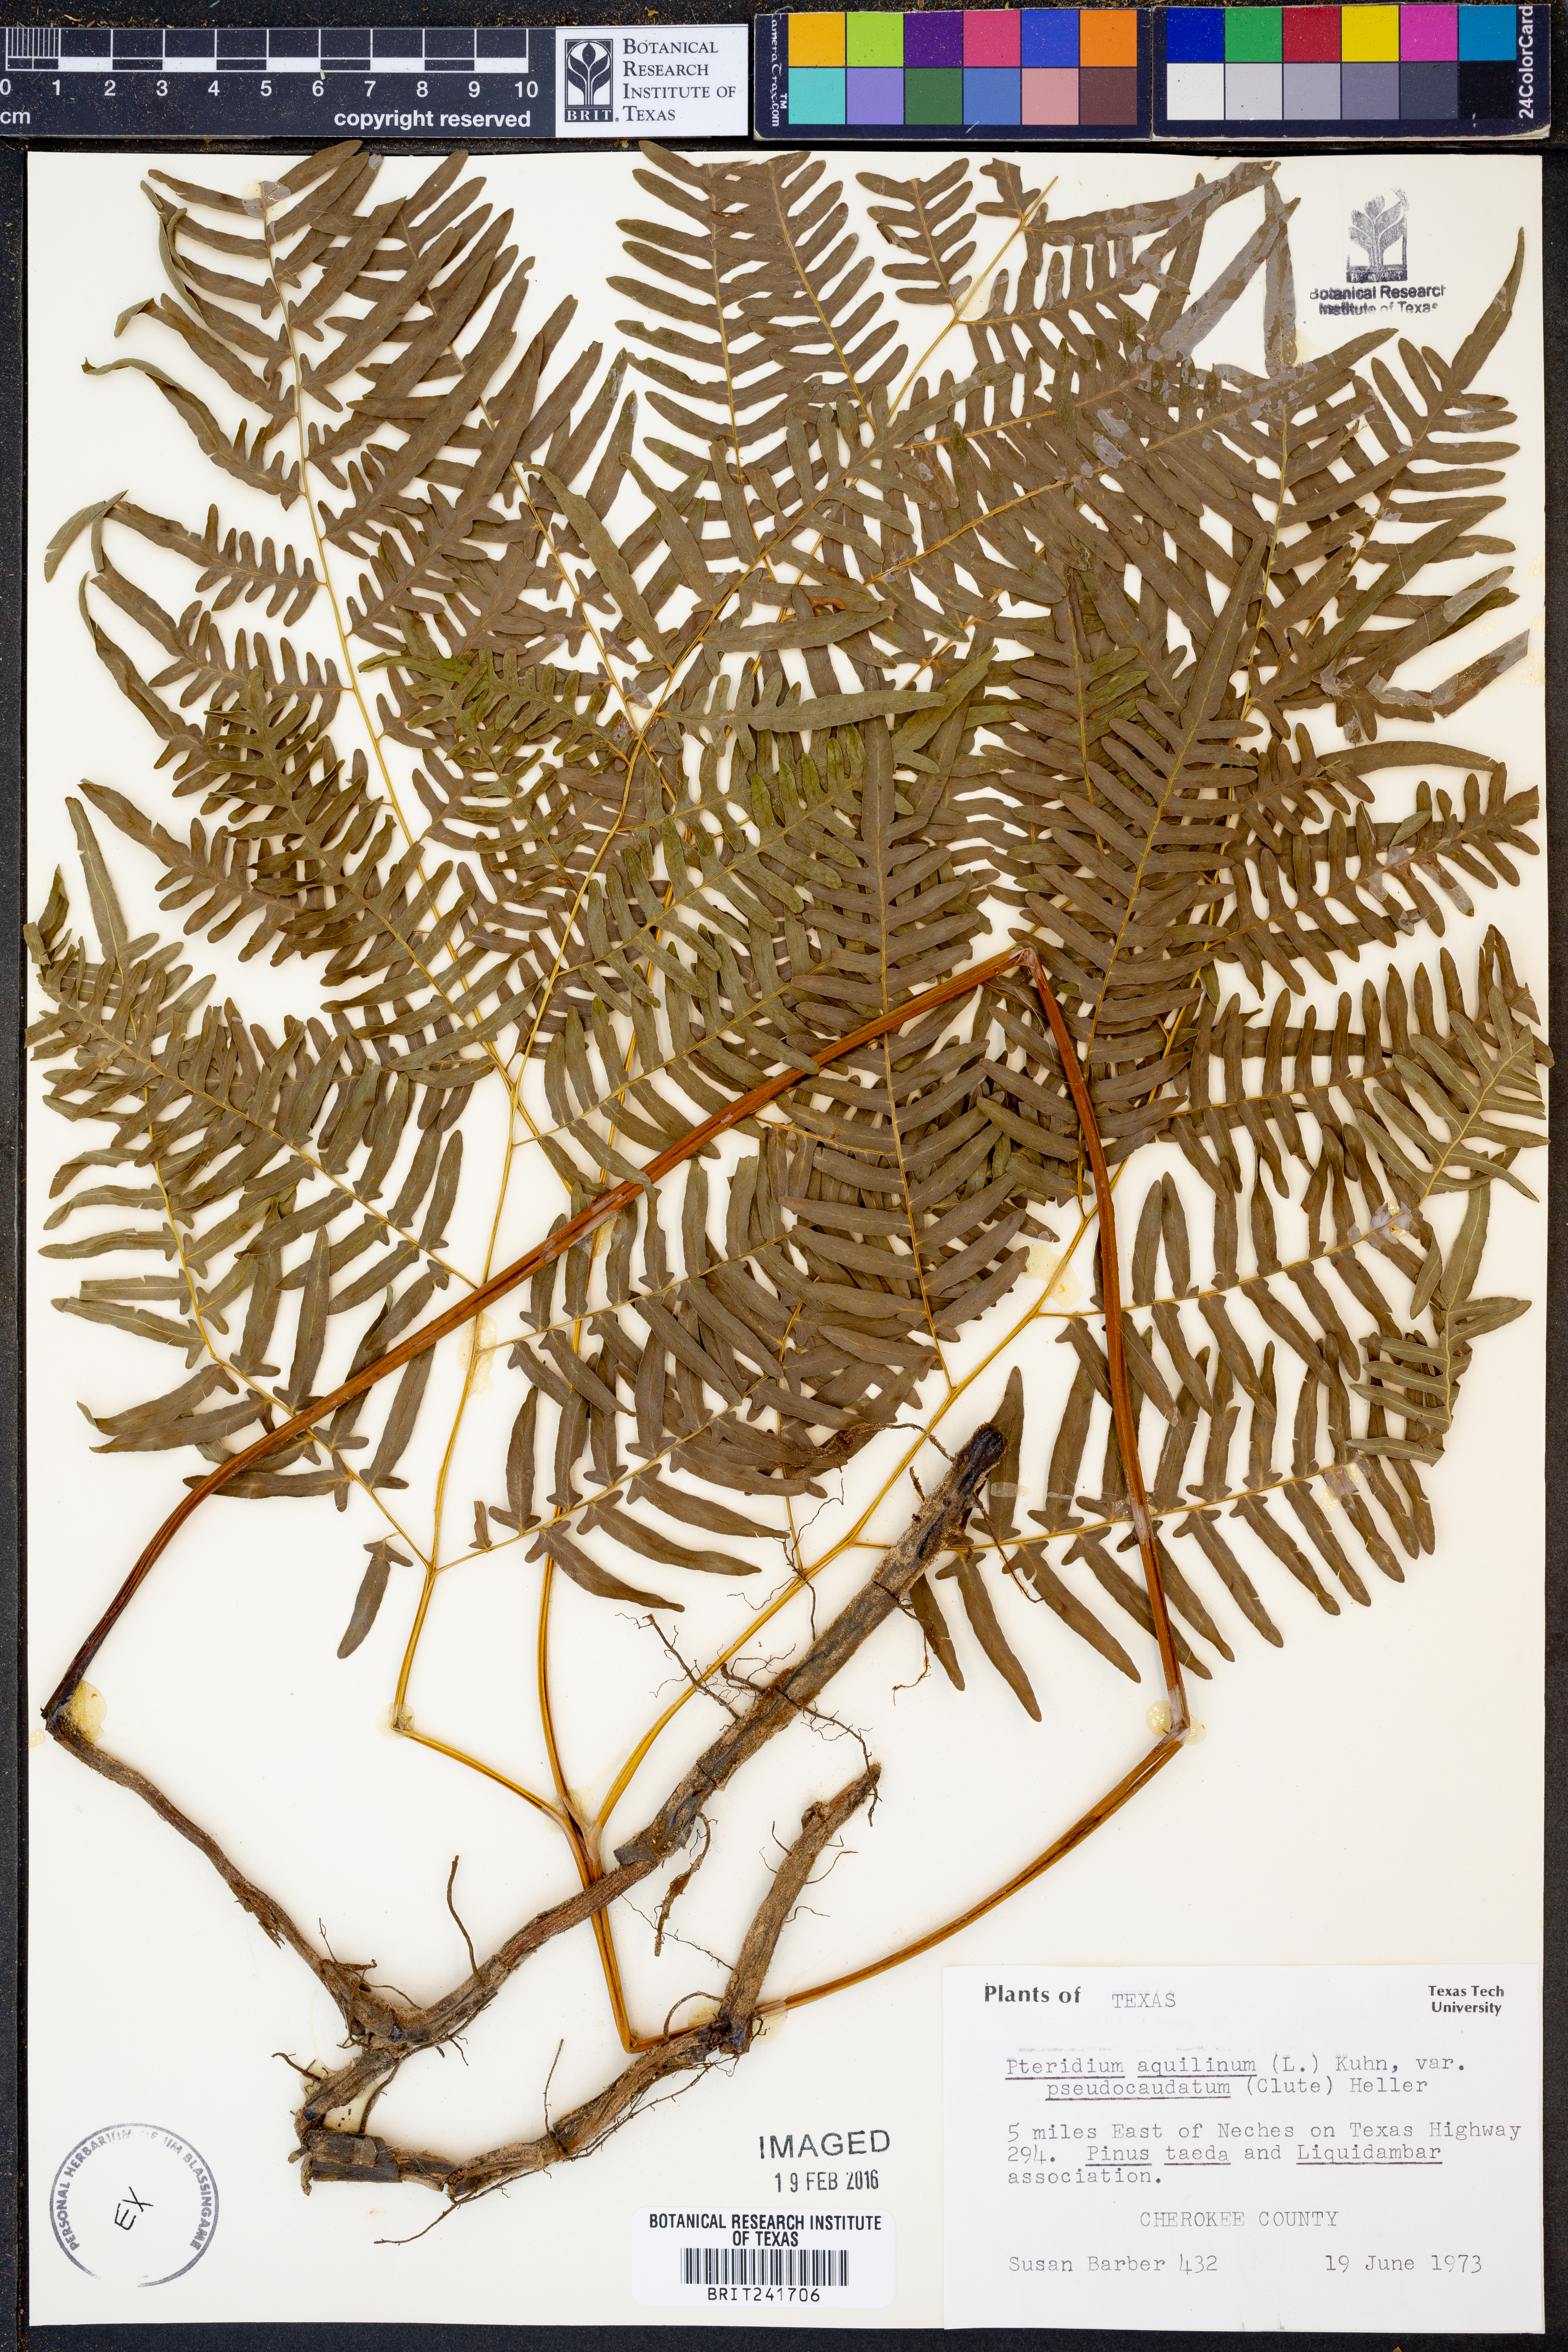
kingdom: Plantae
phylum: Tracheophyta
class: Polypodiopsida
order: Polypodiales
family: Dennstaedtiaceae
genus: Pteridium
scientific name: Pteridium aquilinum
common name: Bracken
